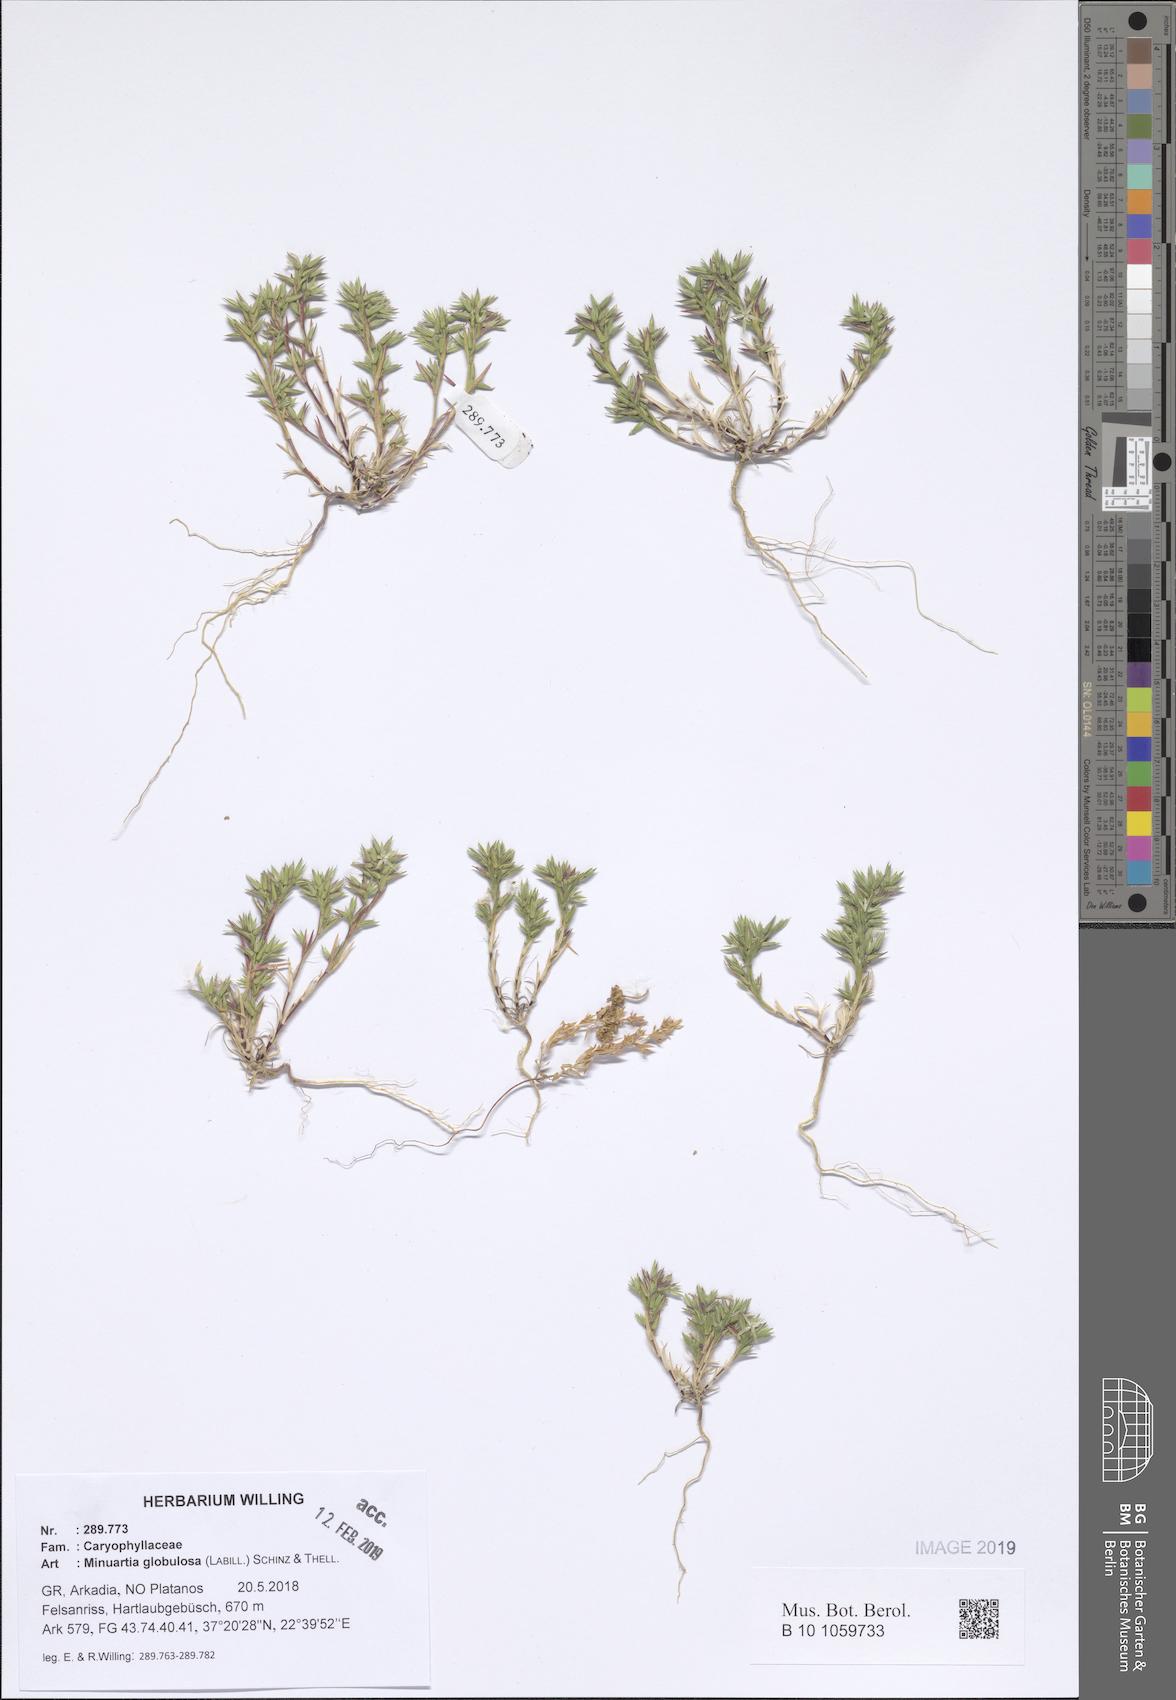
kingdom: Plantae
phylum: Tracheophyta
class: Magnoliopsida
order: Caryophyllales
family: Caryophyllaceae
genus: Minuartia
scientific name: Minuartia globulosa
